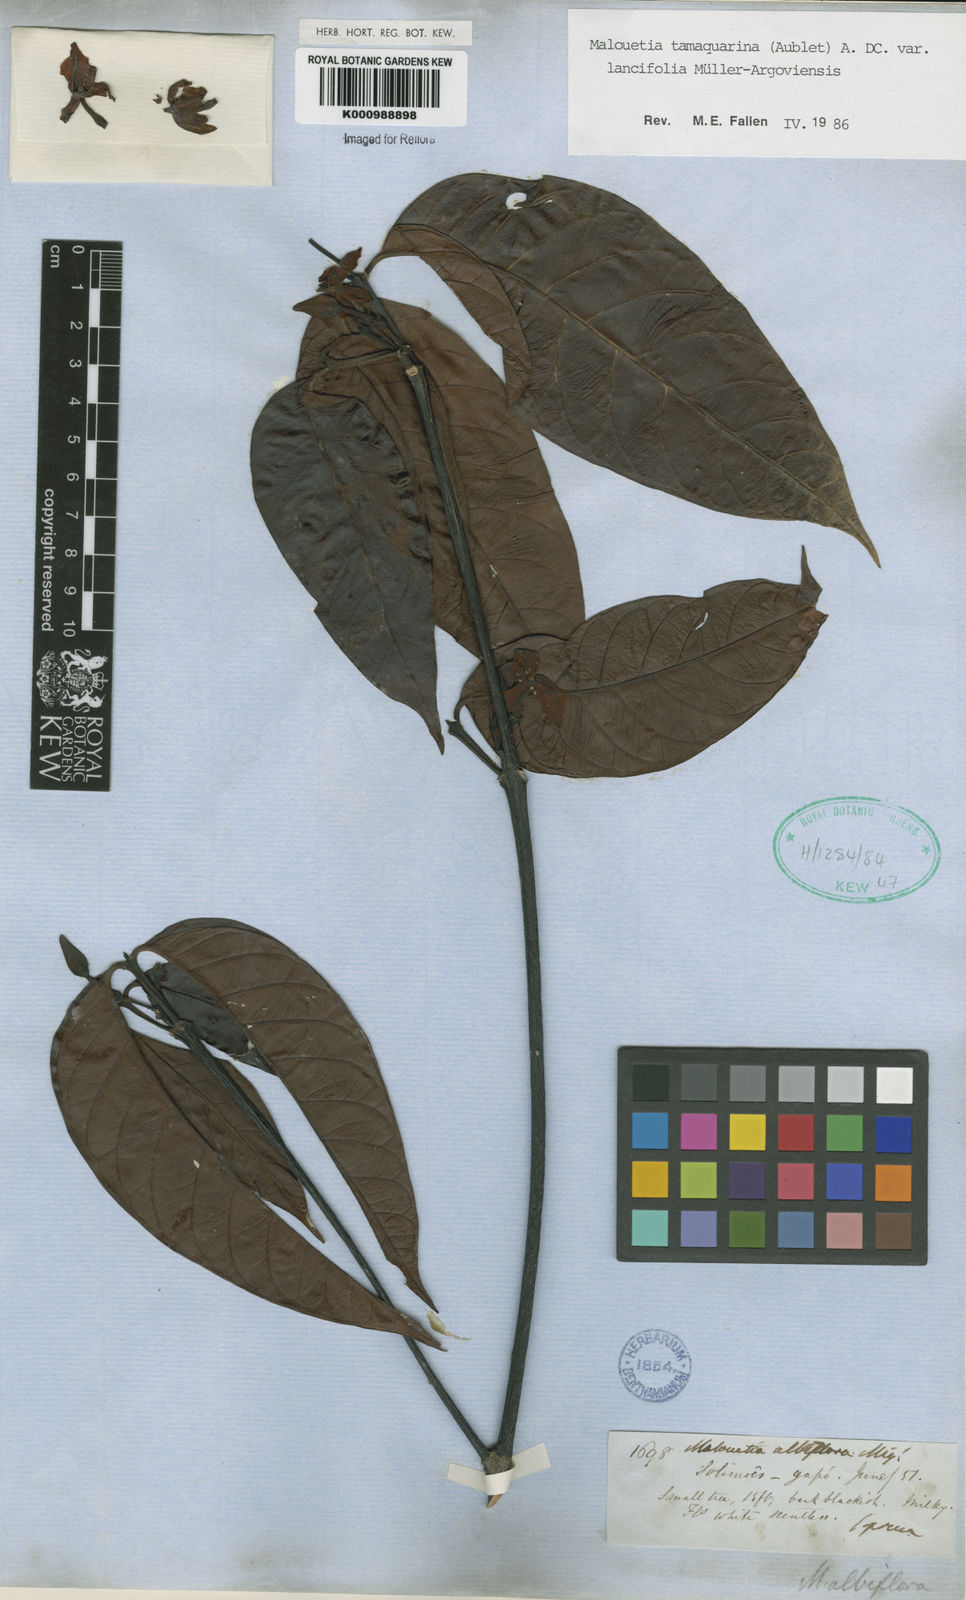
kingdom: Plantae
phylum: Tracheophyta
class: Magnoliopsida
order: Gentianales
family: Apocynaceae
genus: Malouetia
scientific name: Malouetia tamaquarina
